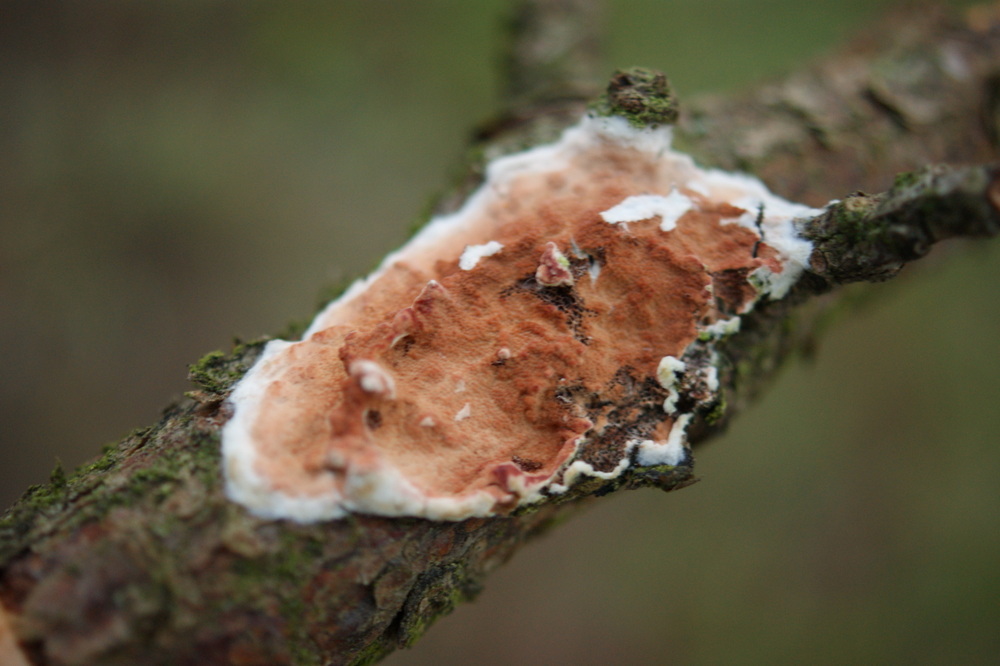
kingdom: Fungi
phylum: Basidiomycota
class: Agaricomycetes
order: Polyporales
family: Irpicaceae
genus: Meruliopsis
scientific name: Meruliopsis taxicola
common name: purpurbrun foldporesvamp
